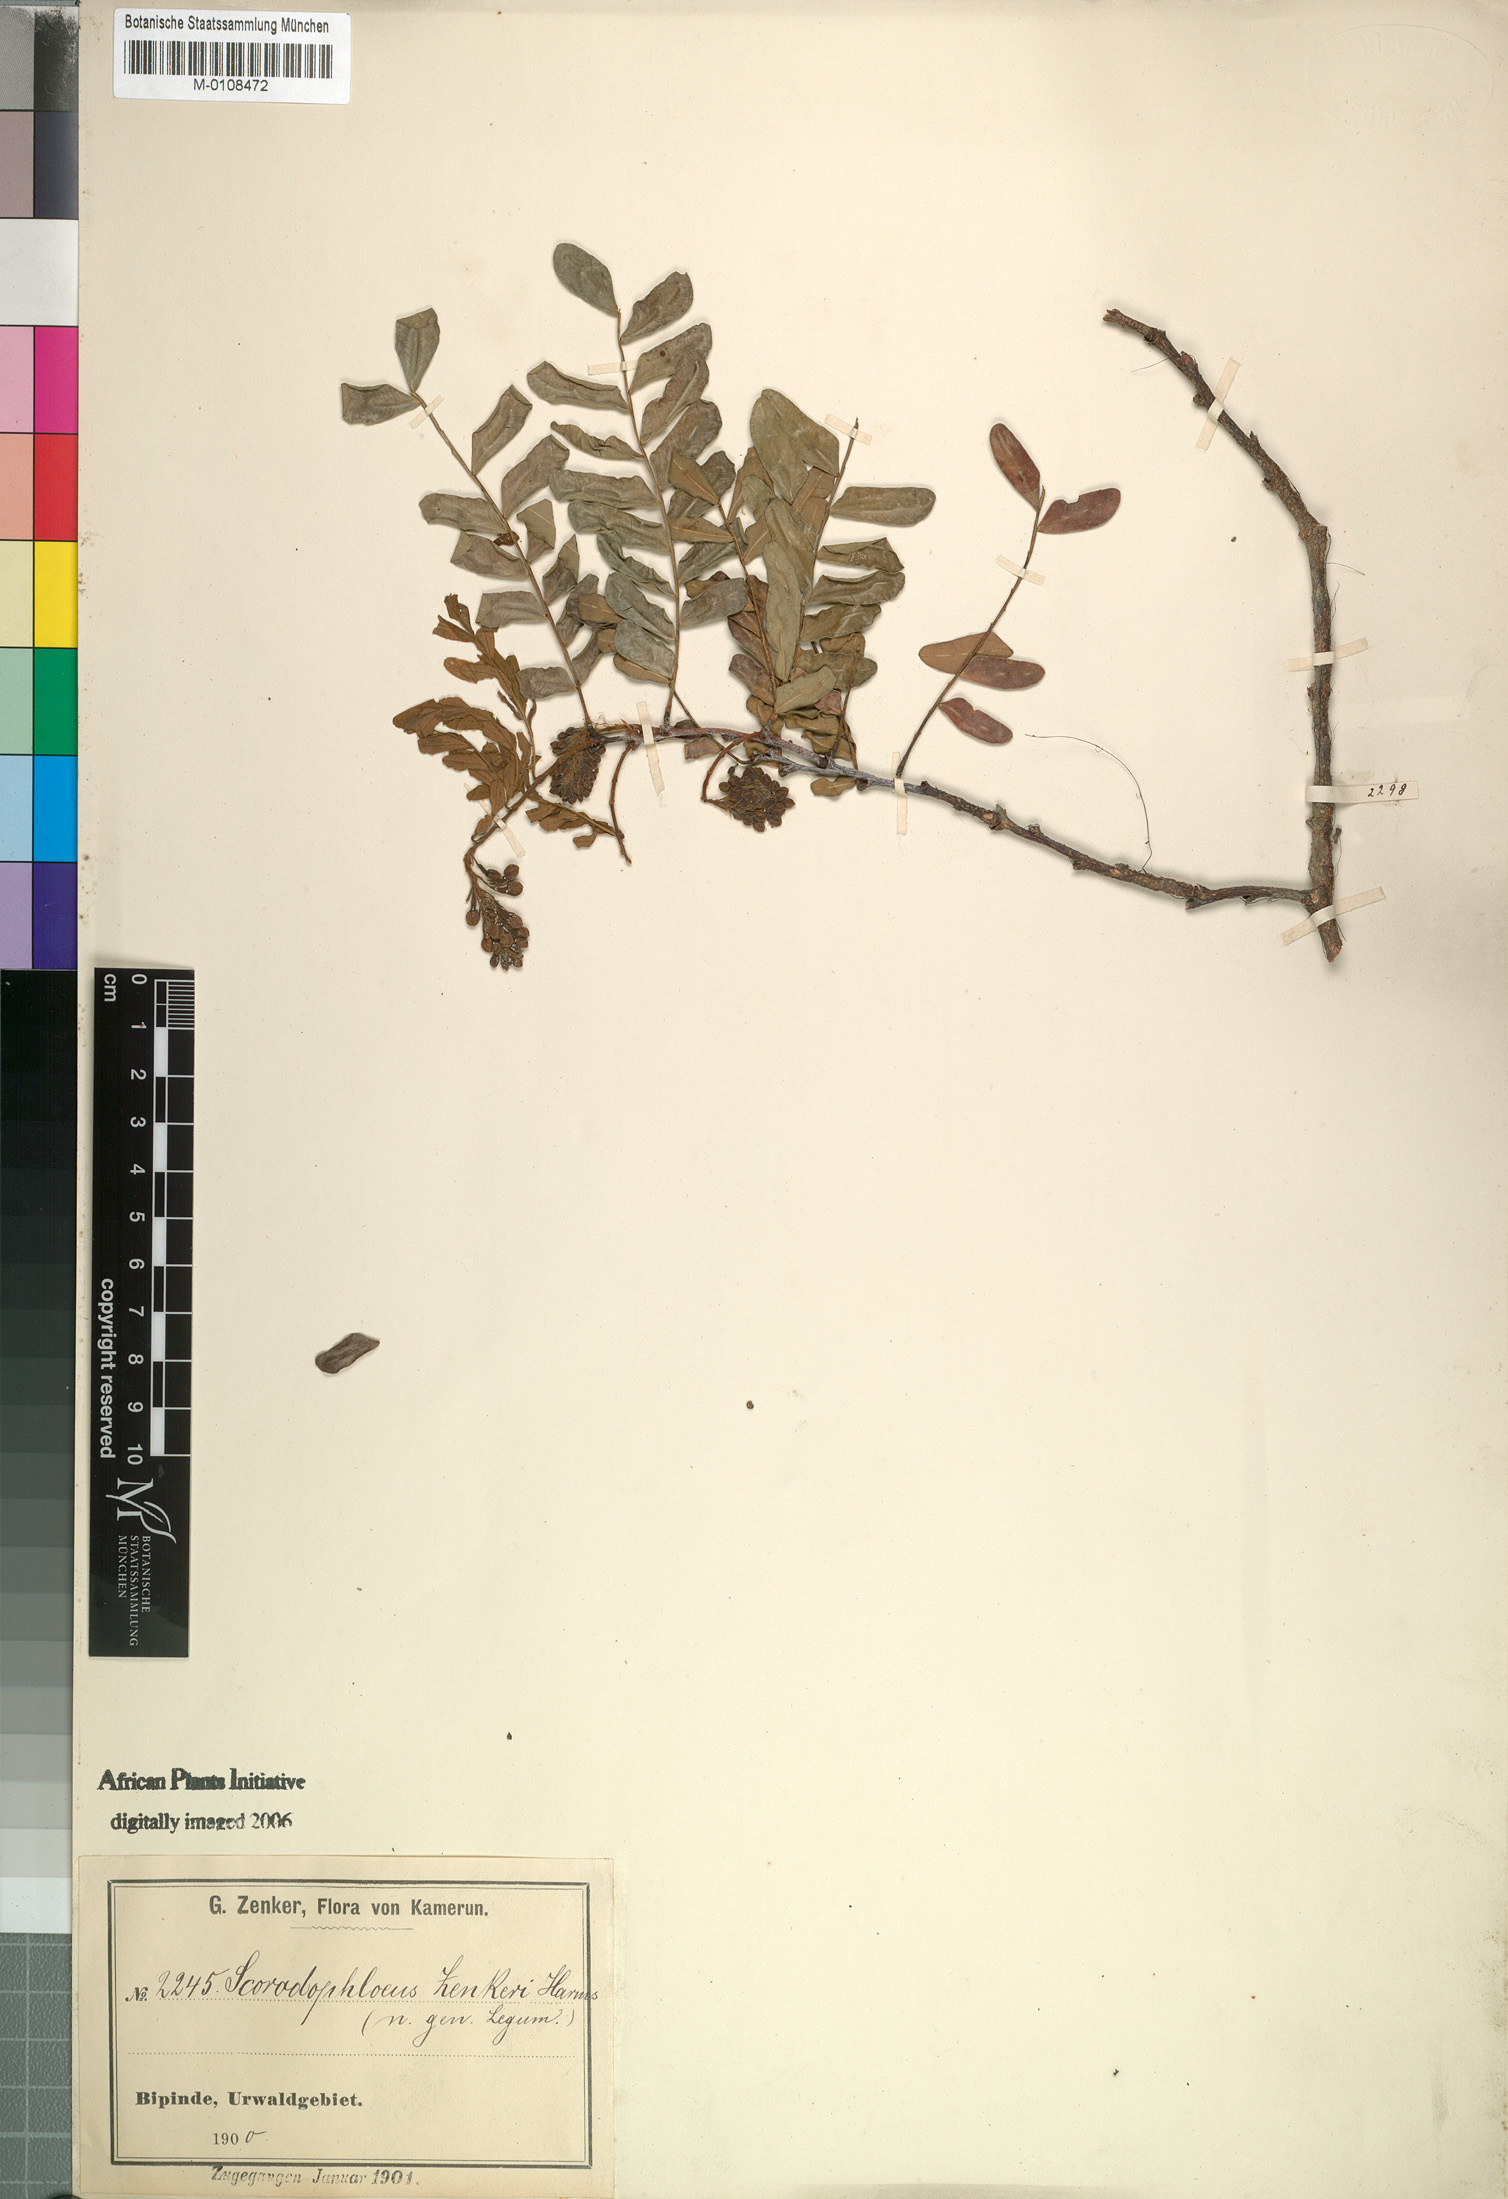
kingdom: Plantae
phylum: Tracheophyta
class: Magnoliopsida
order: Fabales
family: Fabaceae
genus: Scorodophloeus
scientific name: Scorodophloeus zenkeri
